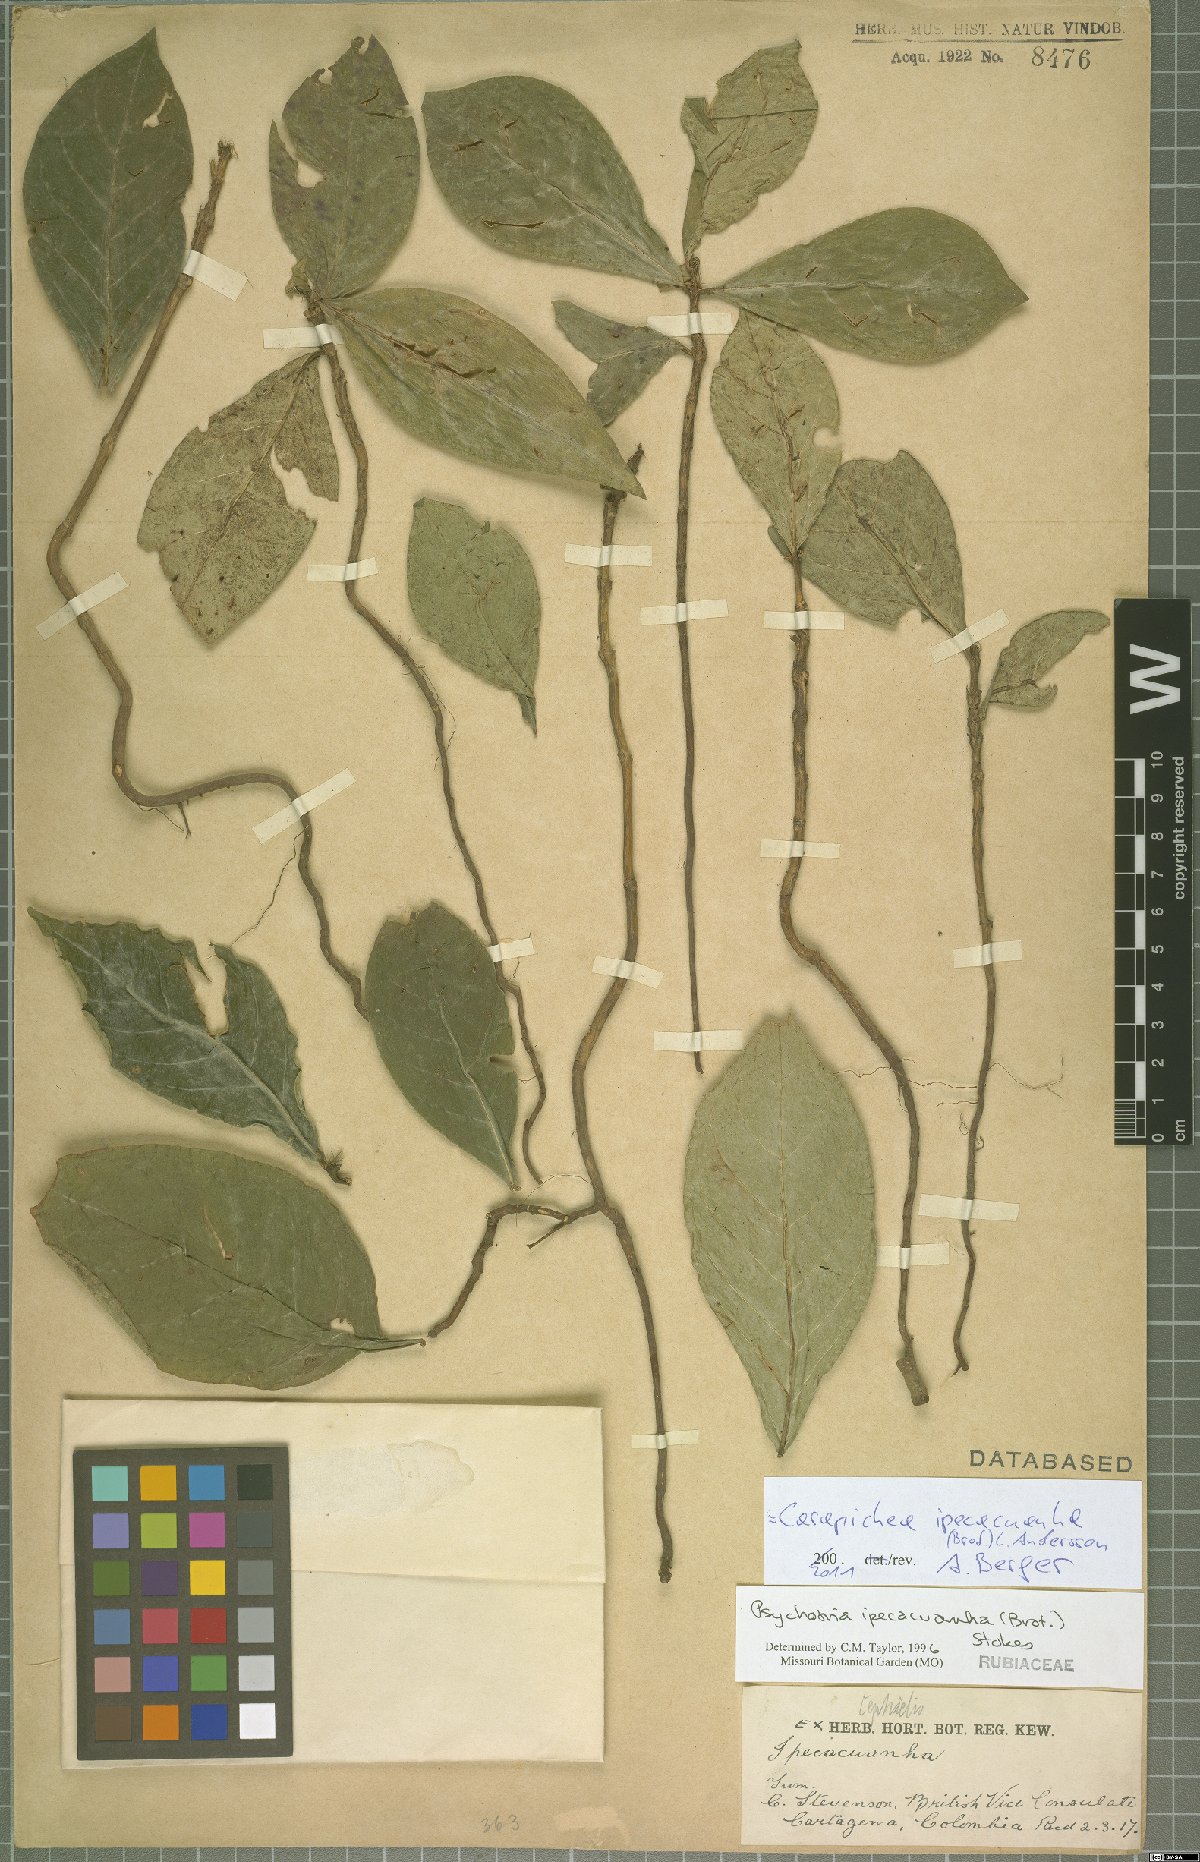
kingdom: Plantae
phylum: Tracheophyta
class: Magnoliopsida
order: Gentianales
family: Rubiaceae
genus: Carapichea
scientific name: Carapichea ipecacuanha
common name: Ipecac
